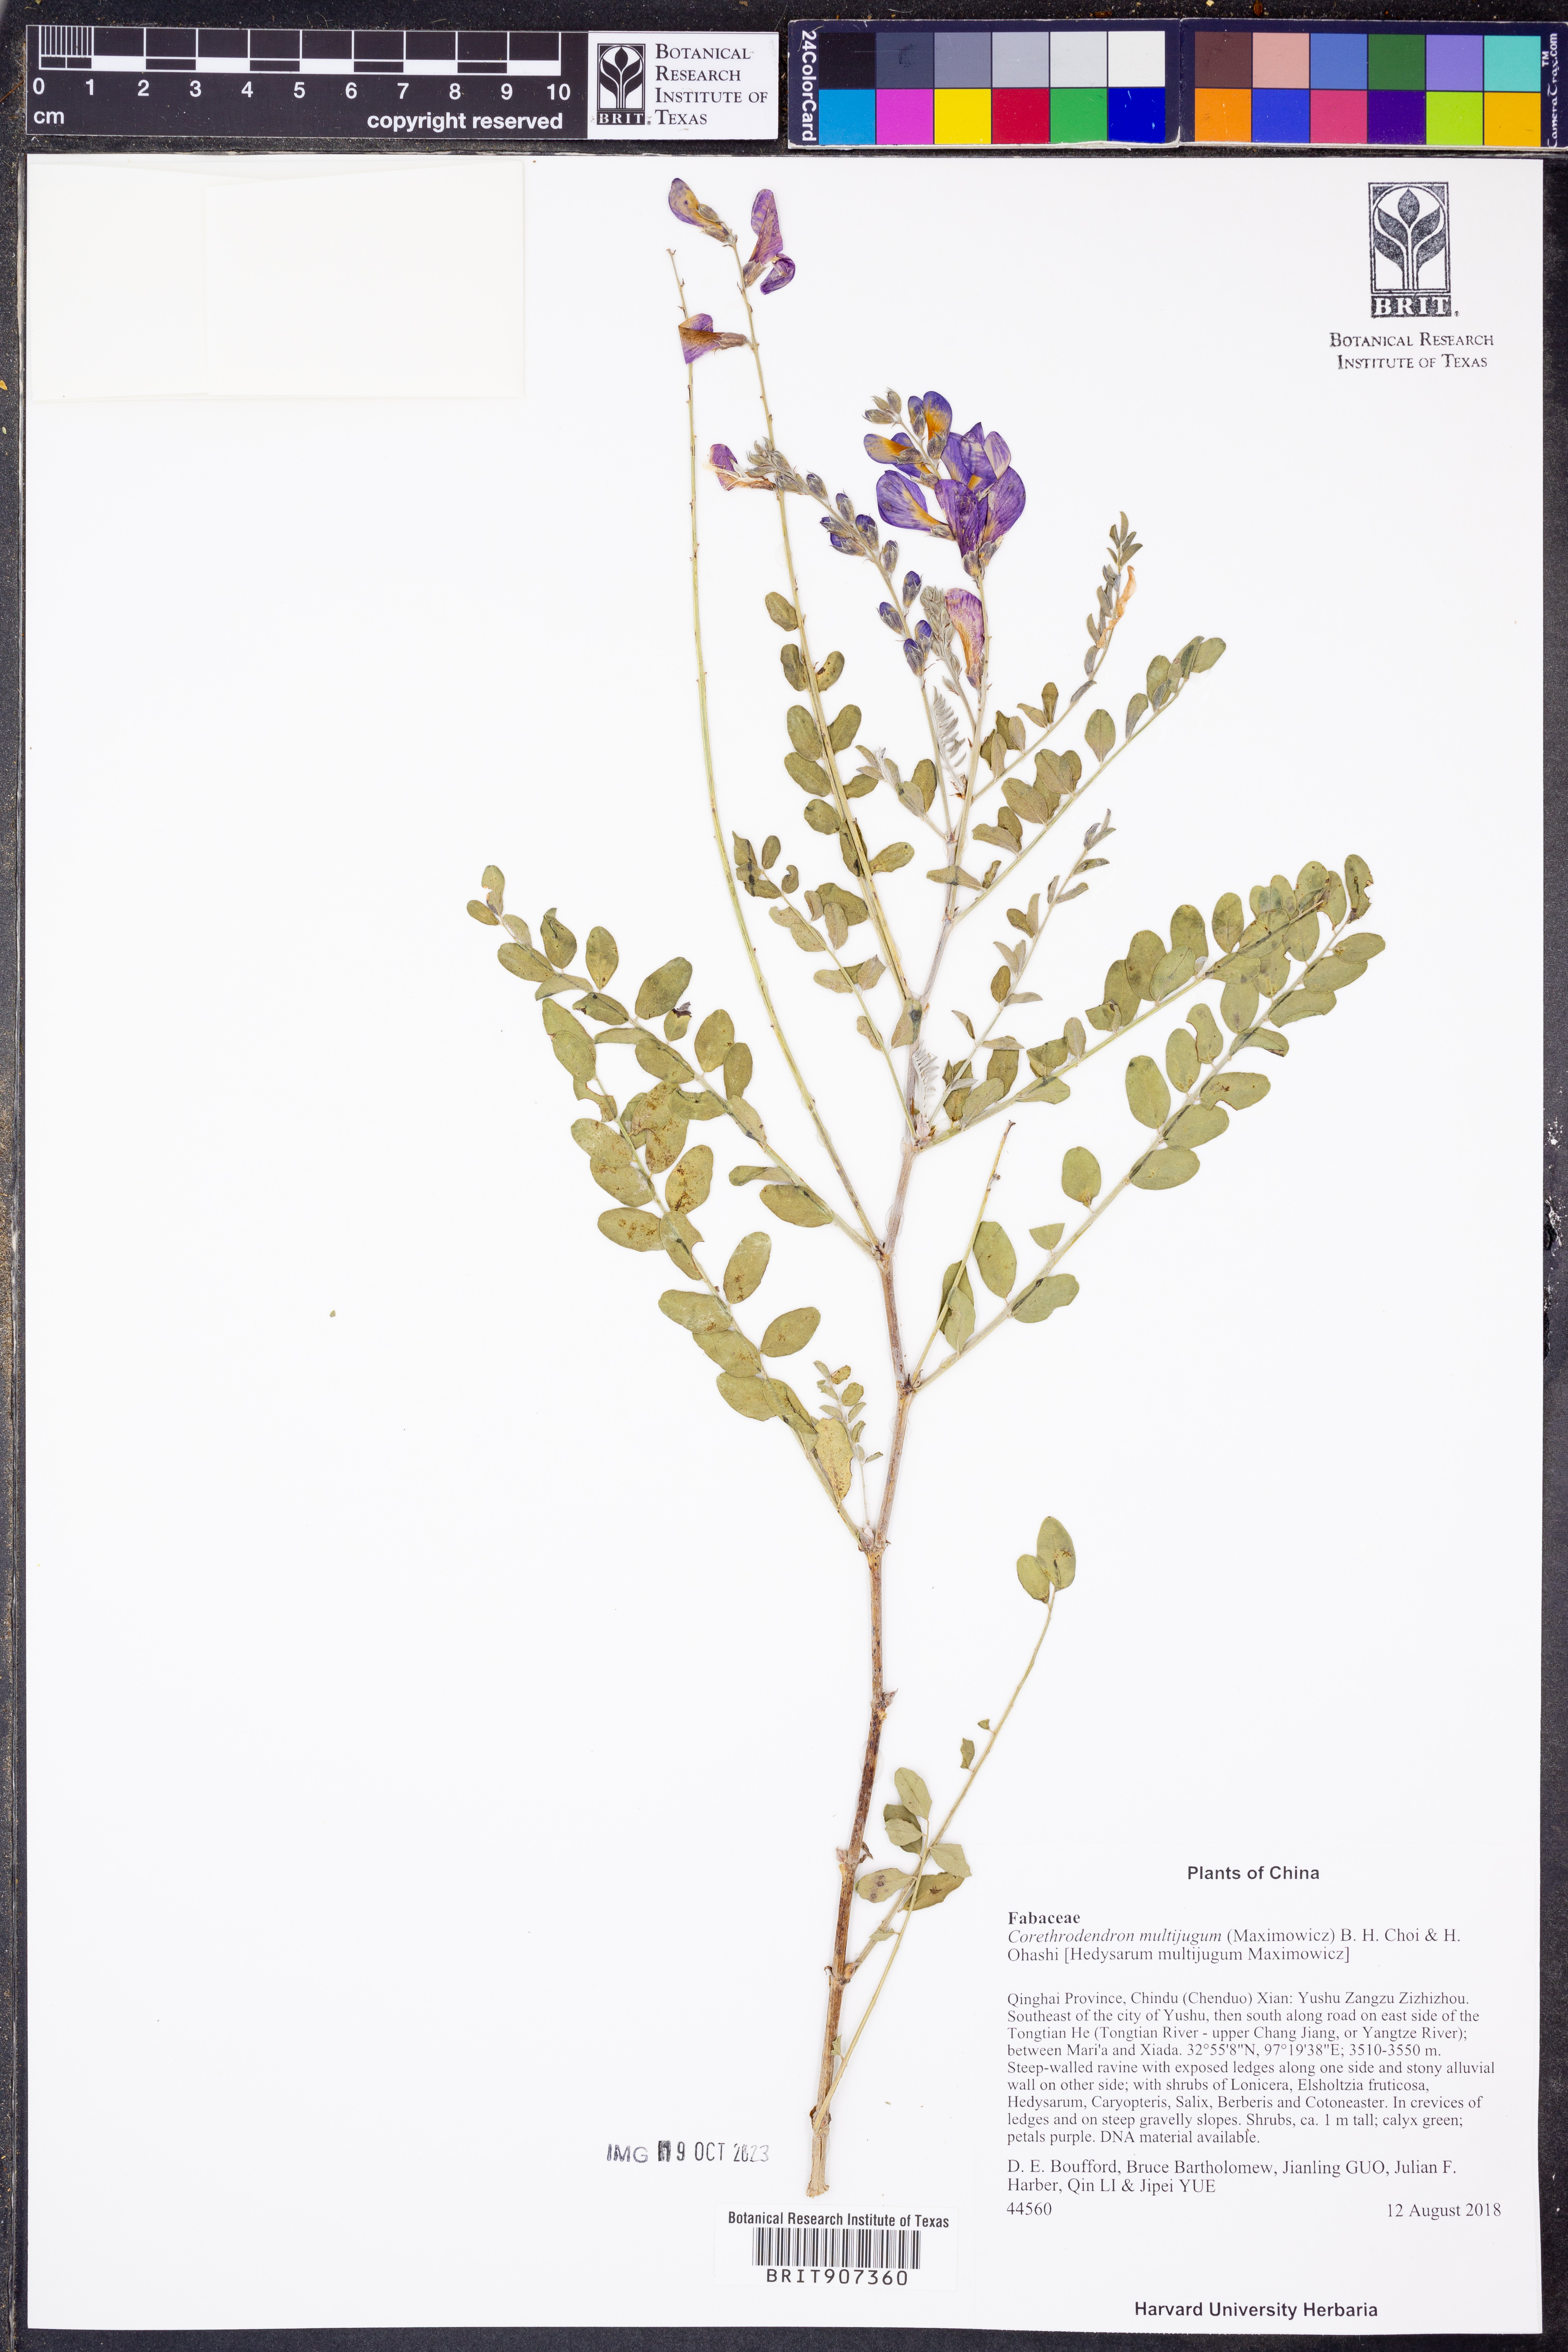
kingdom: Plantae
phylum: Tracheophyta
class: Magnoliopsida
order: Fabales
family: Fabaceae
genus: Corethrodendron
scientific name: Corethrodendron multijugum
